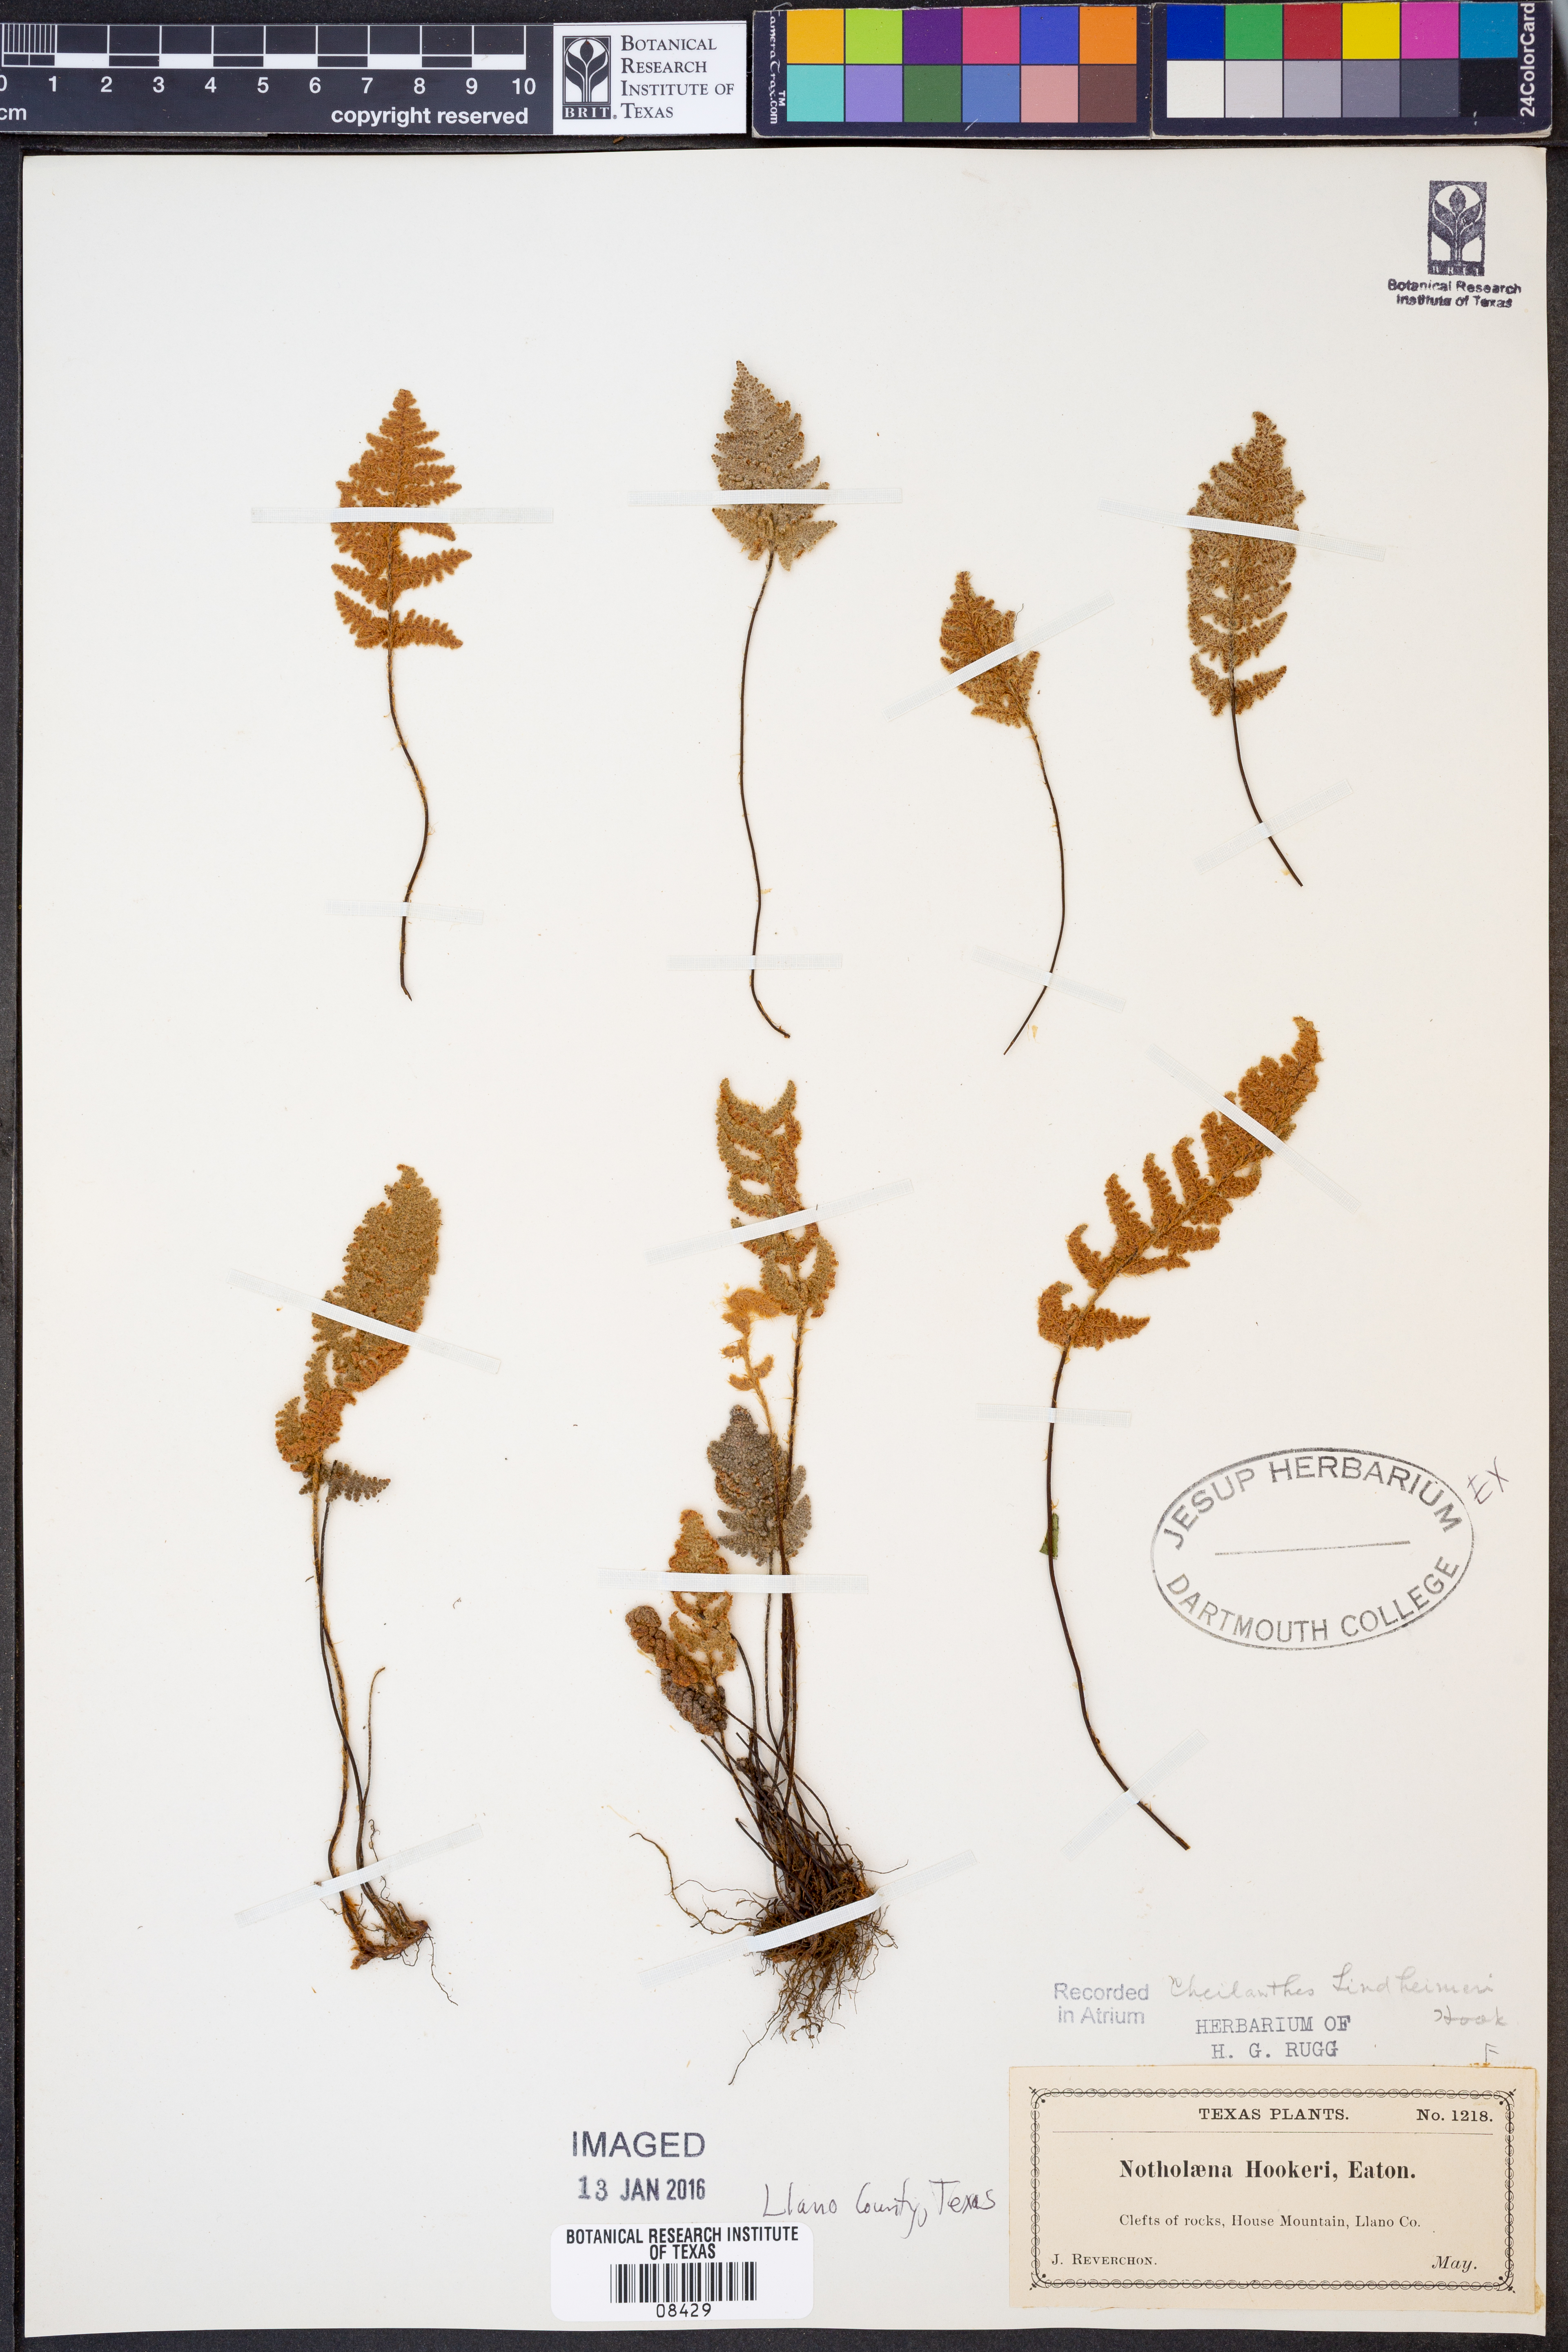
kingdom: Plantae
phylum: Tracheophyta
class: Polypodiopsida
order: Polypodiales
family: Pteridaceae
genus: Notholaena
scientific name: Notholaena standleyi
